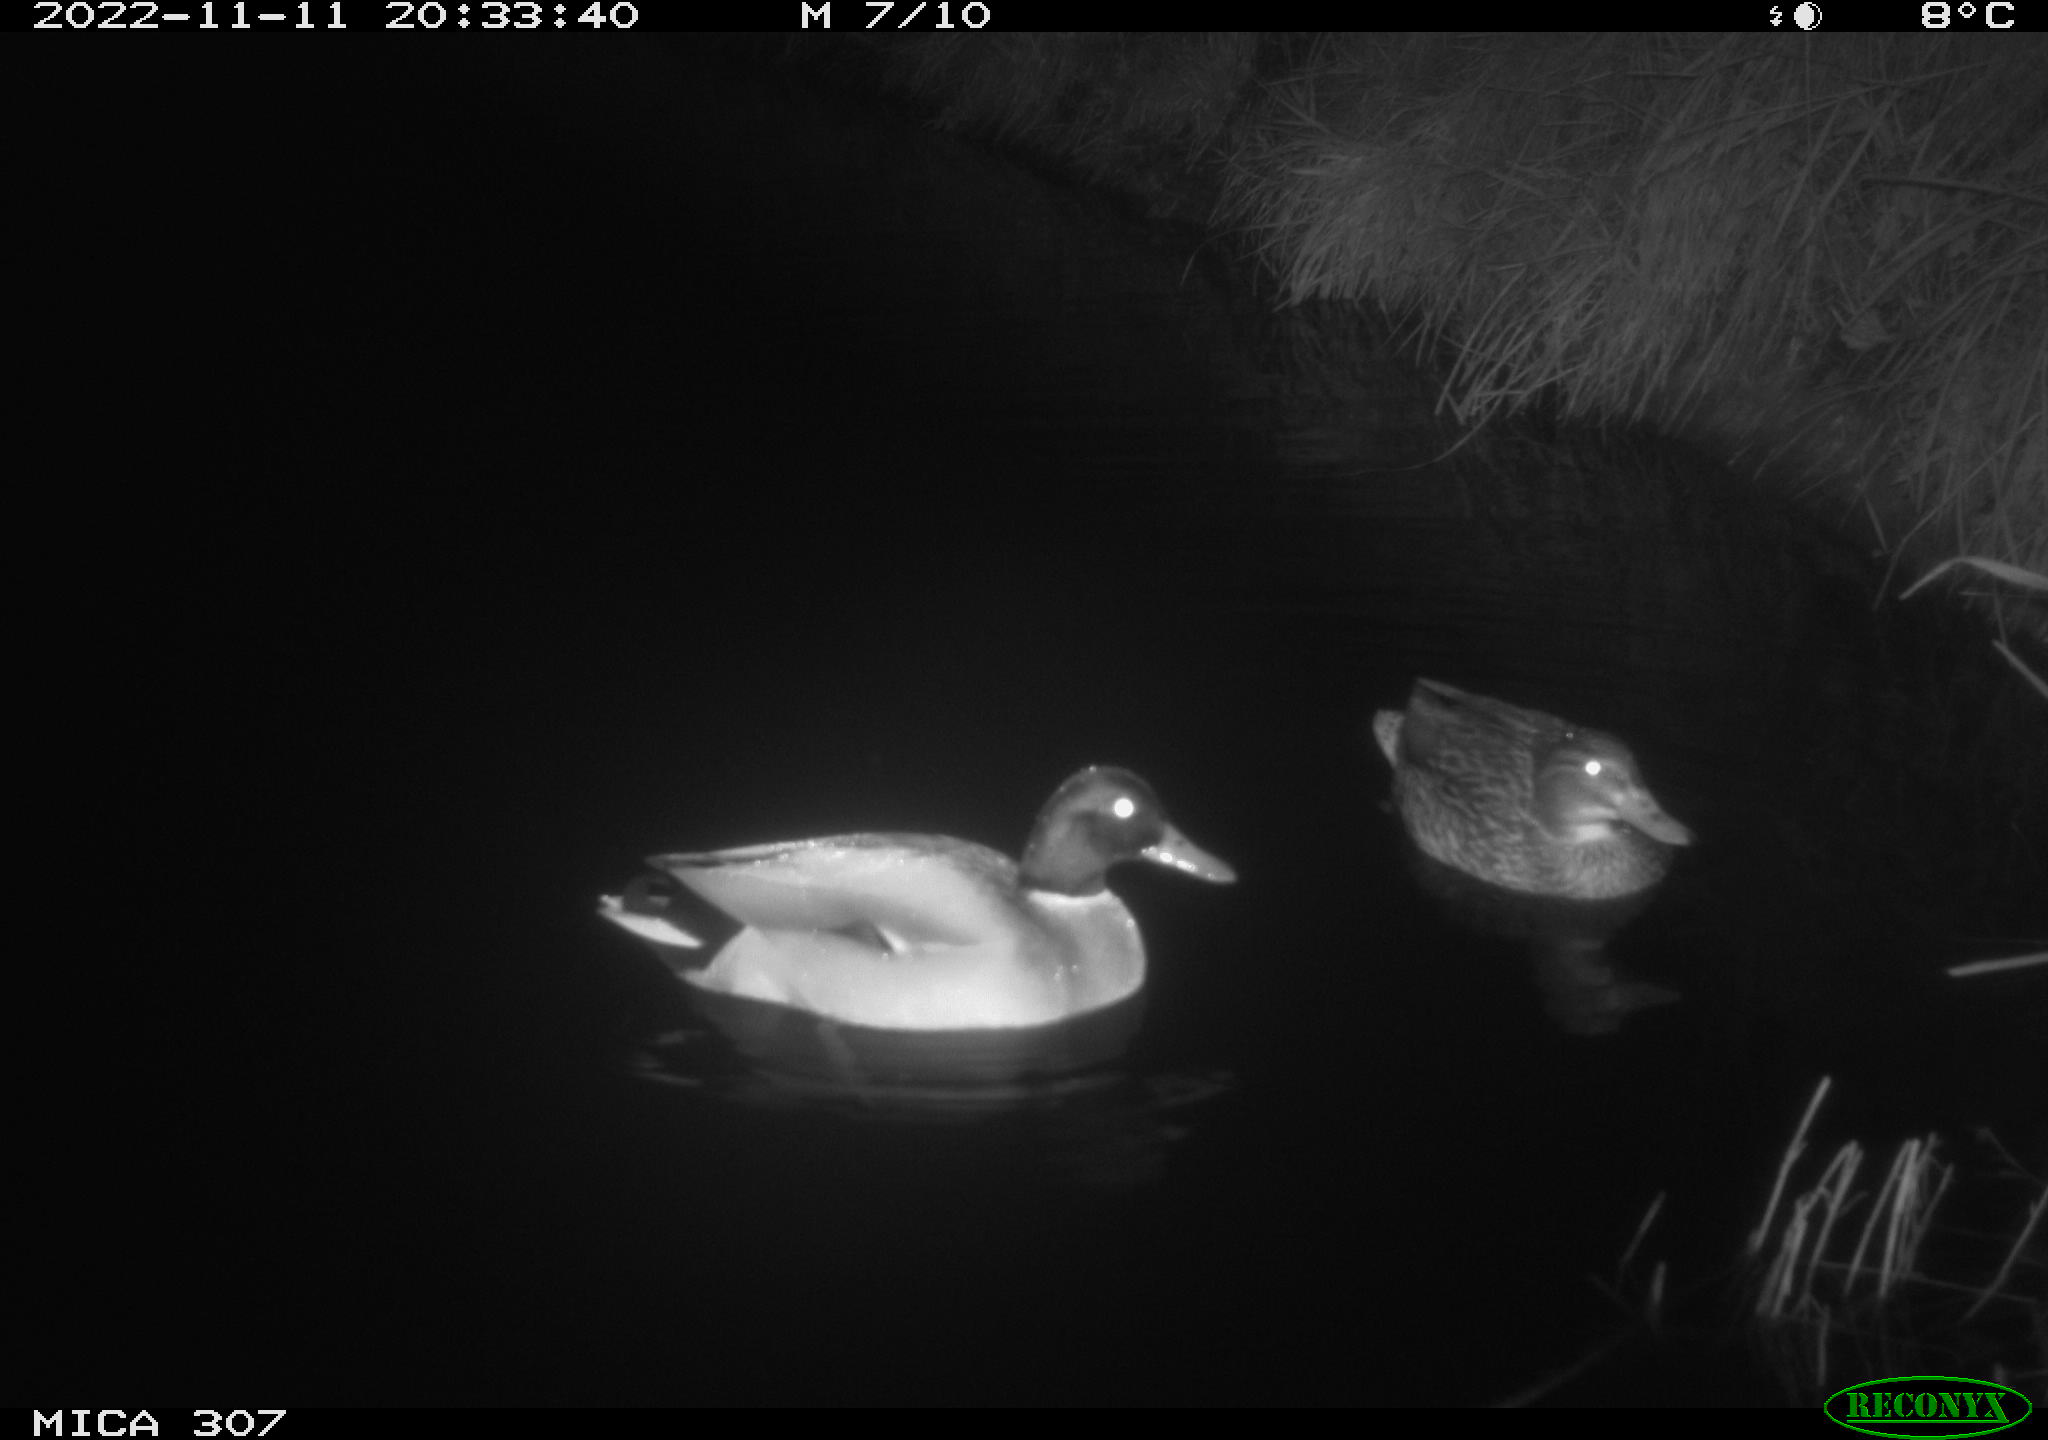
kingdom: Animalia
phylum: Chordata
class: Aves
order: Anseriformes
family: Anatidae
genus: Anas
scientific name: Anas
